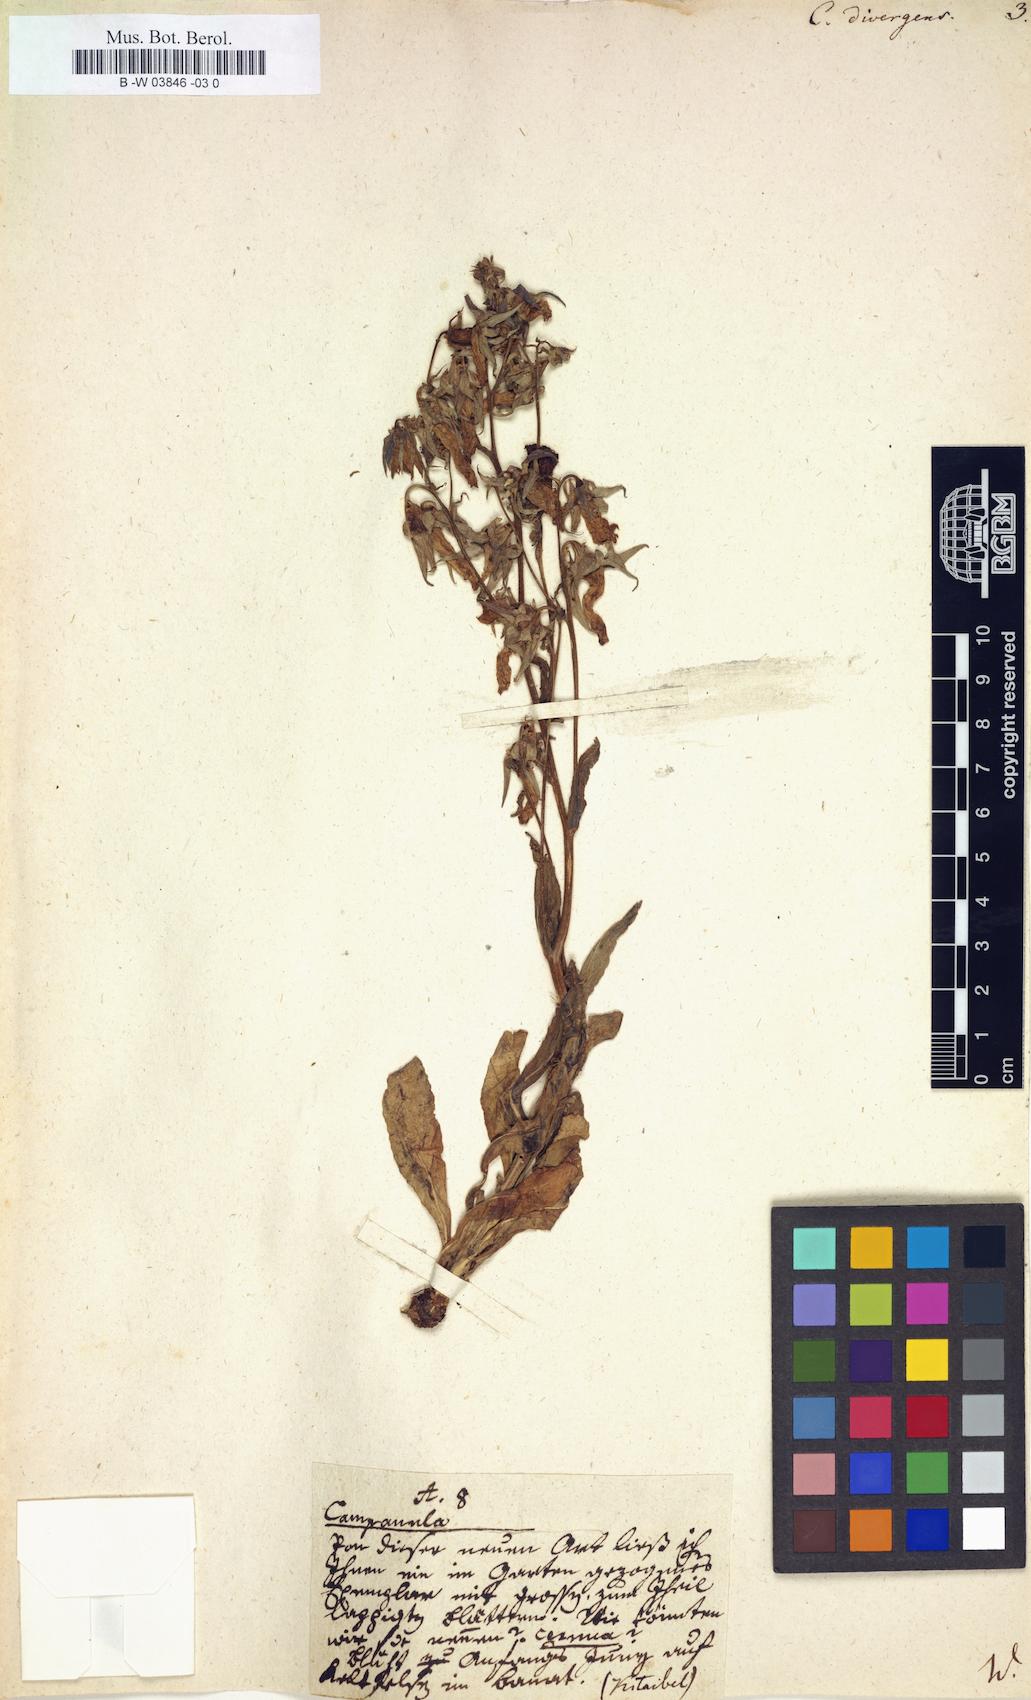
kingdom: Plantae
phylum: Tracheophyta
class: Magnoliopsida
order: Asterales
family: Campanulaceae
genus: Campanula
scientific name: Campanula sibirica
